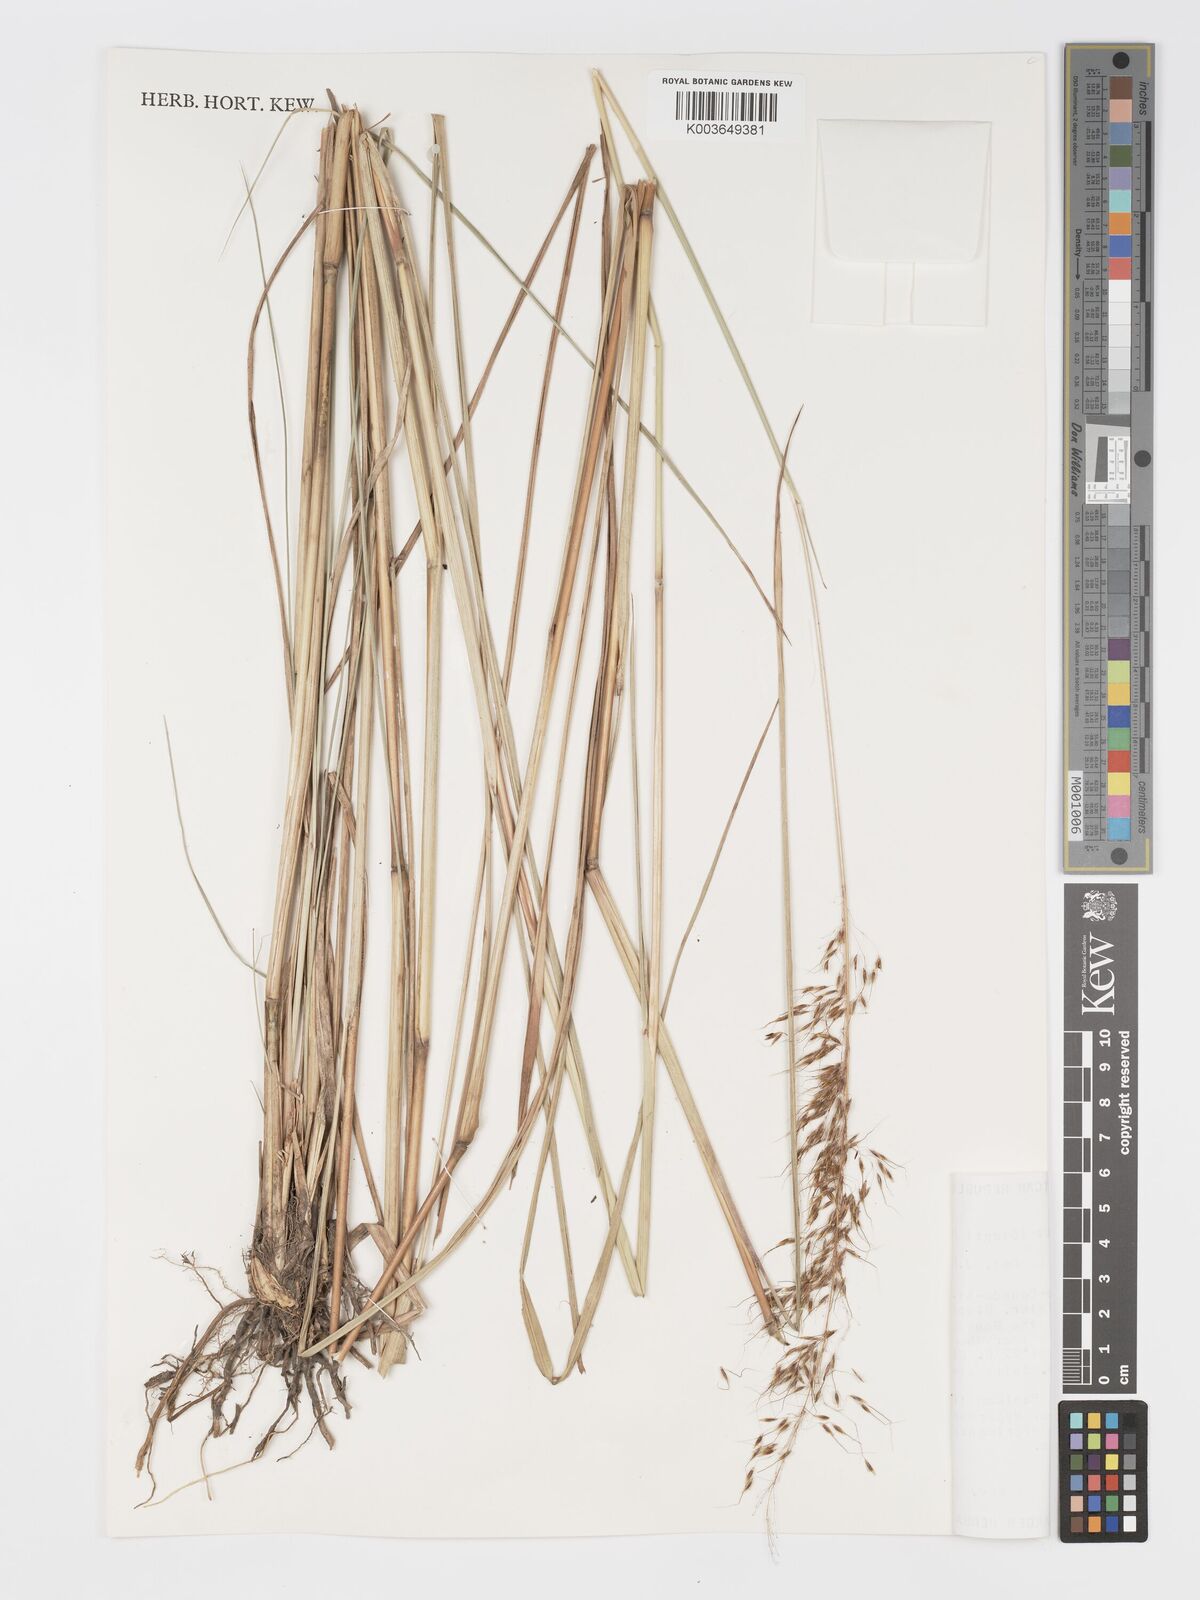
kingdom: Plantae
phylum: Tracheophyta
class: Liliopsida
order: Poales
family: Poaceae
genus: Sorghastrum
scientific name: Sorghastrum stipoides
